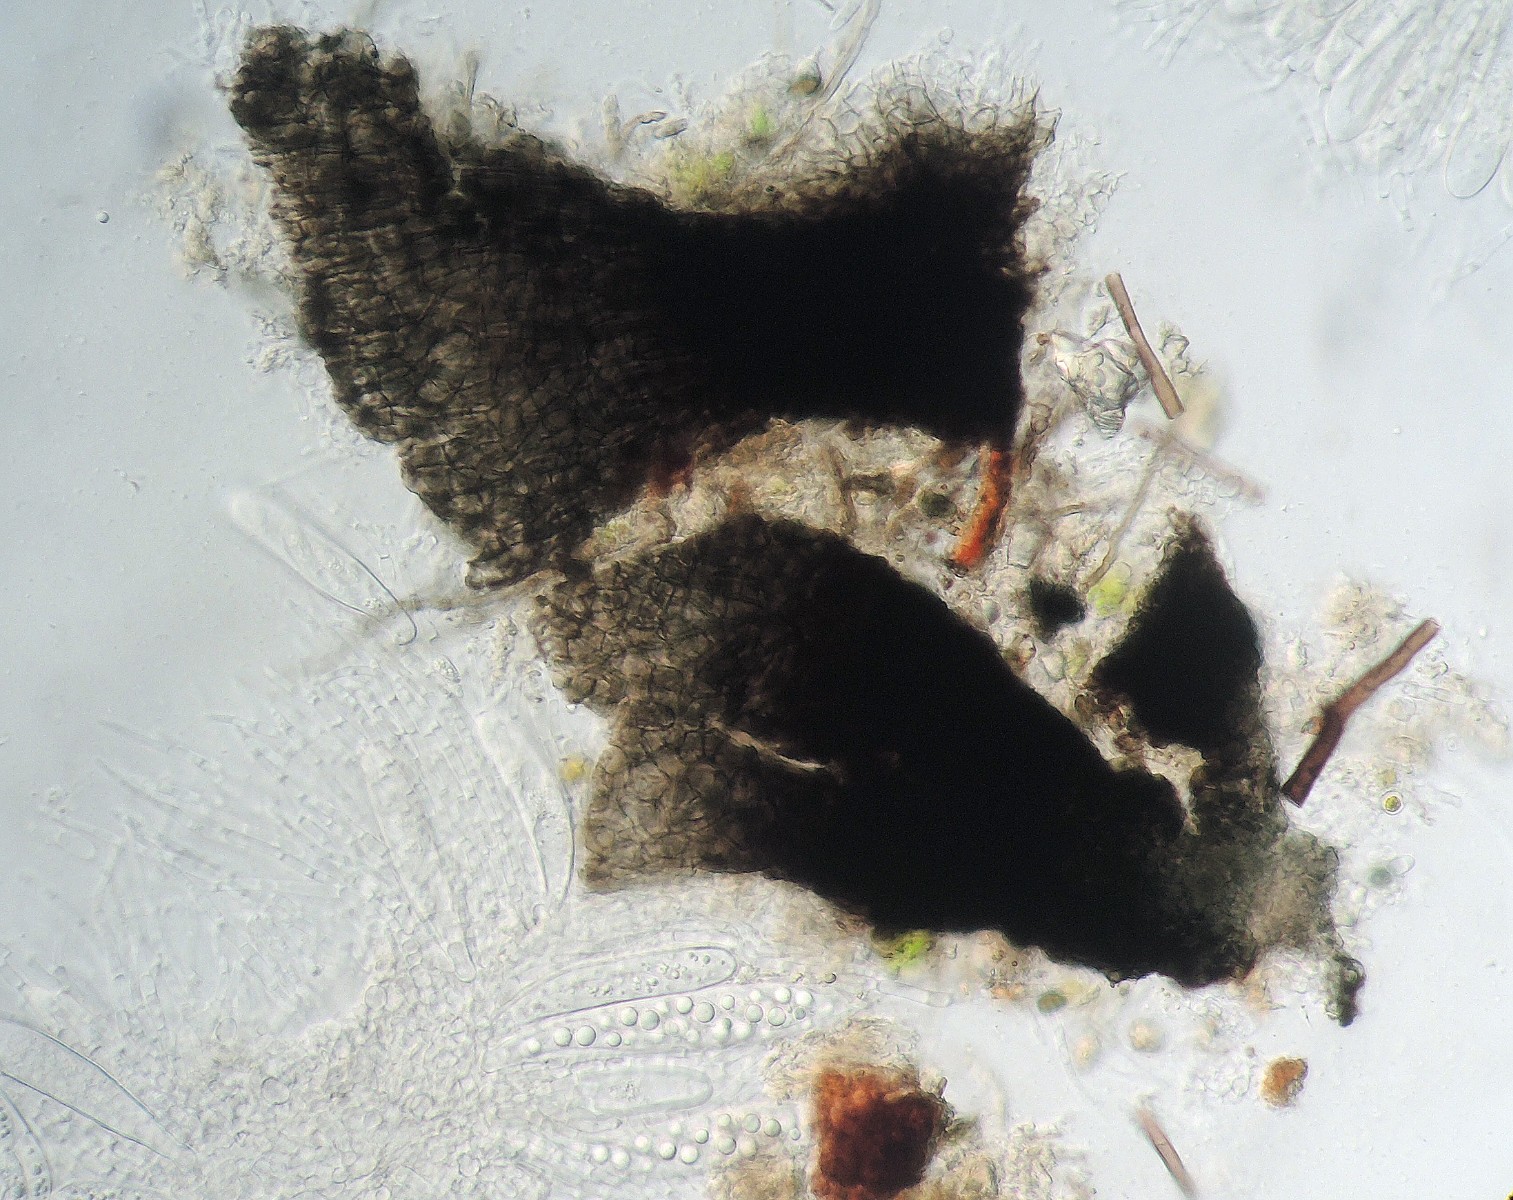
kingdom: Plantae
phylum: Bryophyta
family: Dothideomycetes
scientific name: Dothideomycetes
